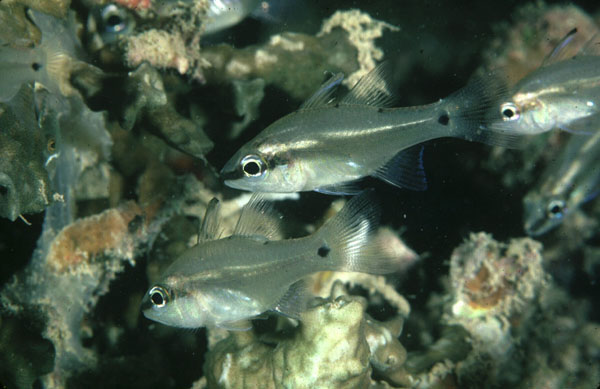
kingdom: Animalia
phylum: Chordata
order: Perciformes
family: Apogonidae
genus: Fibramia
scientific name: Fibramia thermalis
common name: Sangi cardinalfish
